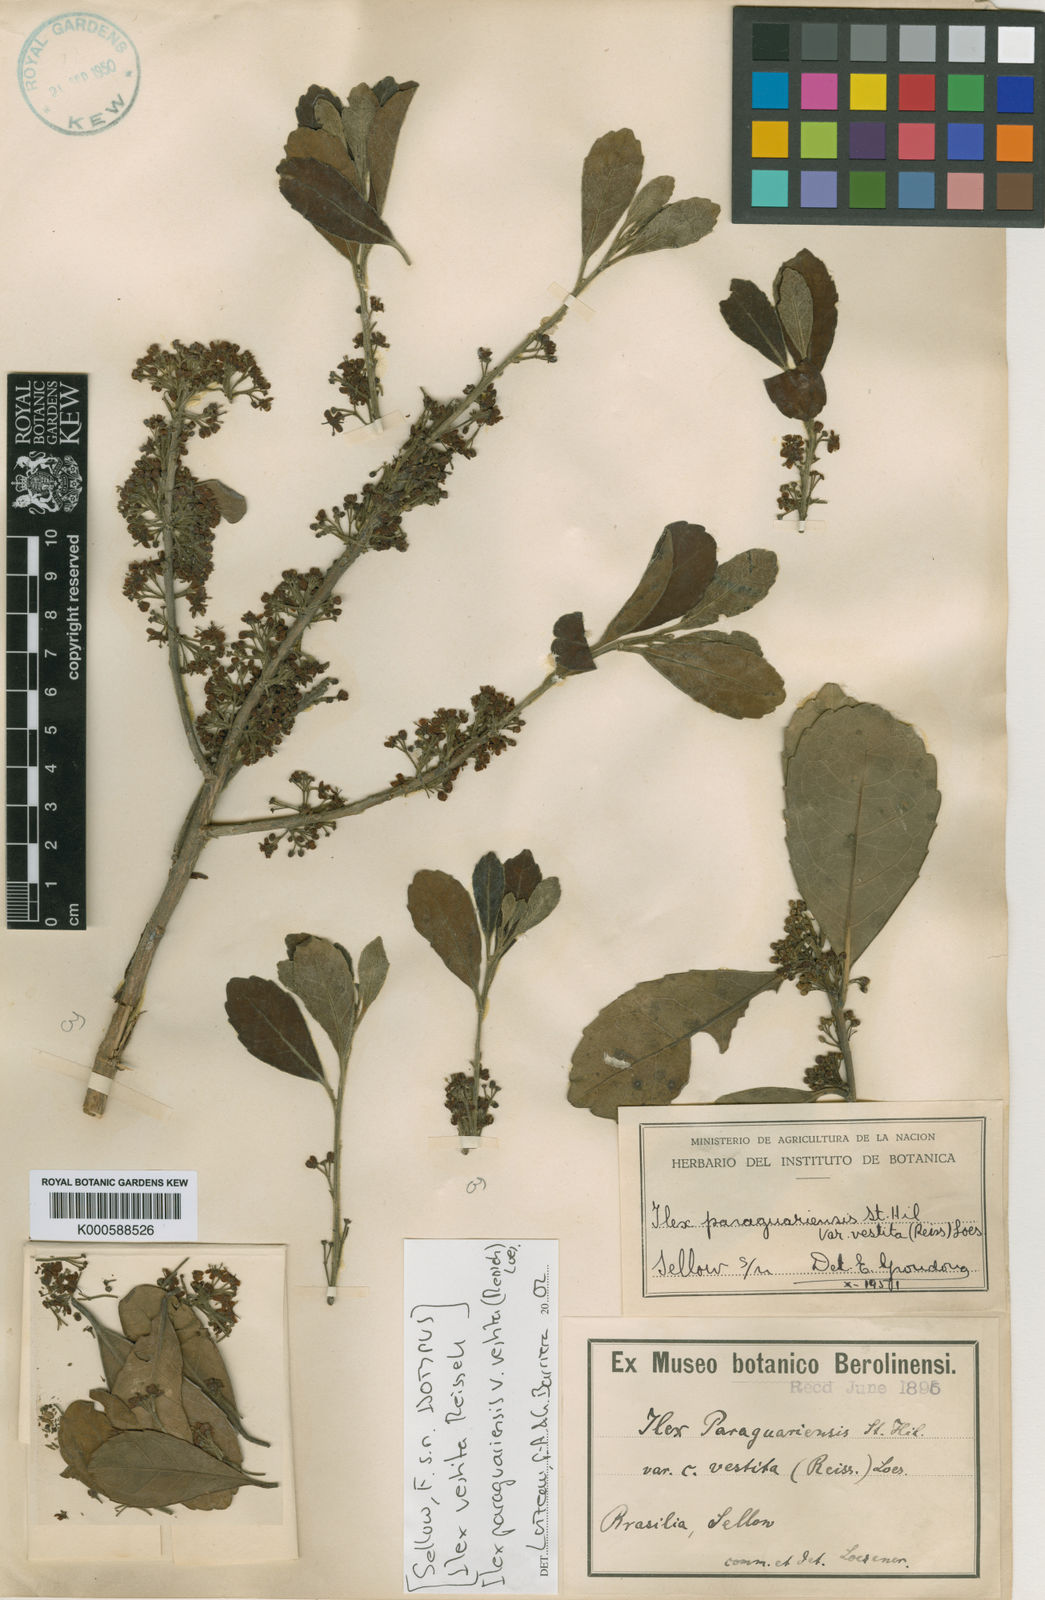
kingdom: Plantae
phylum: Tracheophyta
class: Magnoliopsida
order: Aquifoliales
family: Aquifoliaceae
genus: Ilex
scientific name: Ilex paraguariensis
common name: Paraguay tea
